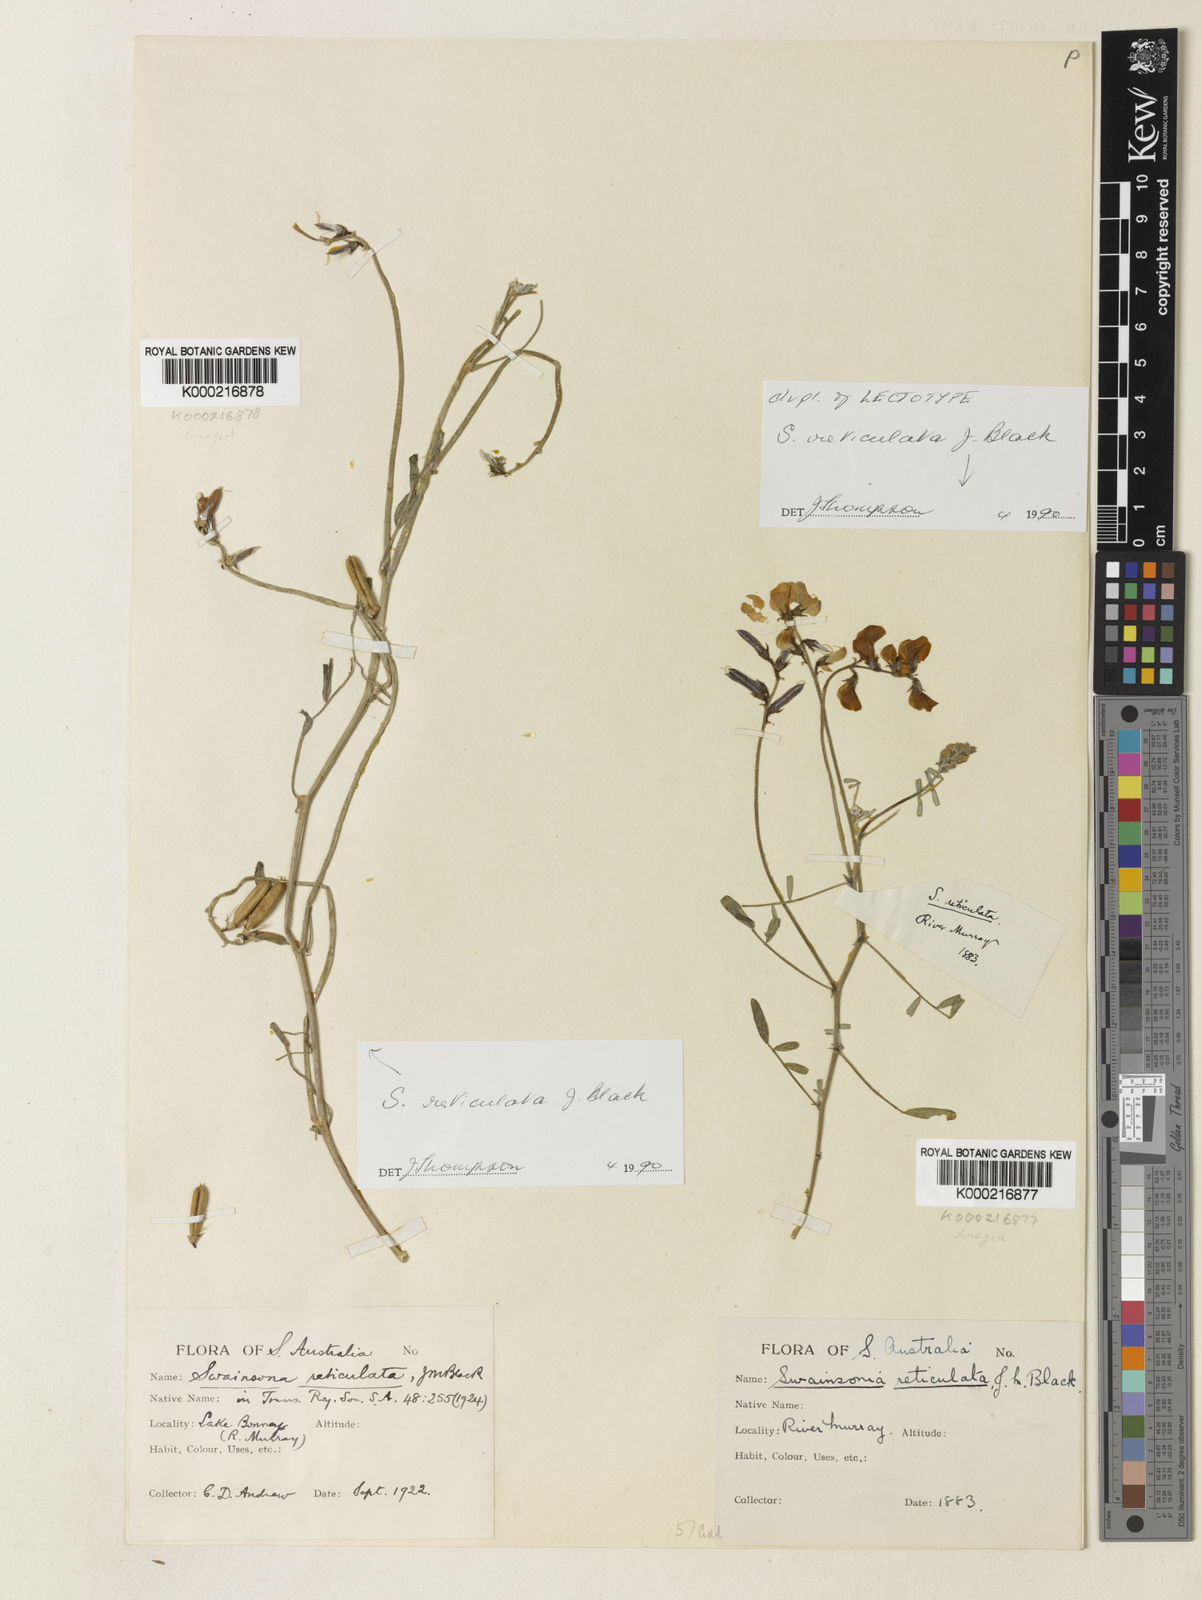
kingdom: Plantae
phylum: Tracheophyta
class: Magnoliopsida
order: Fabales
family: Fabaceae
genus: Swainsona
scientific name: Swainsona reticulata
